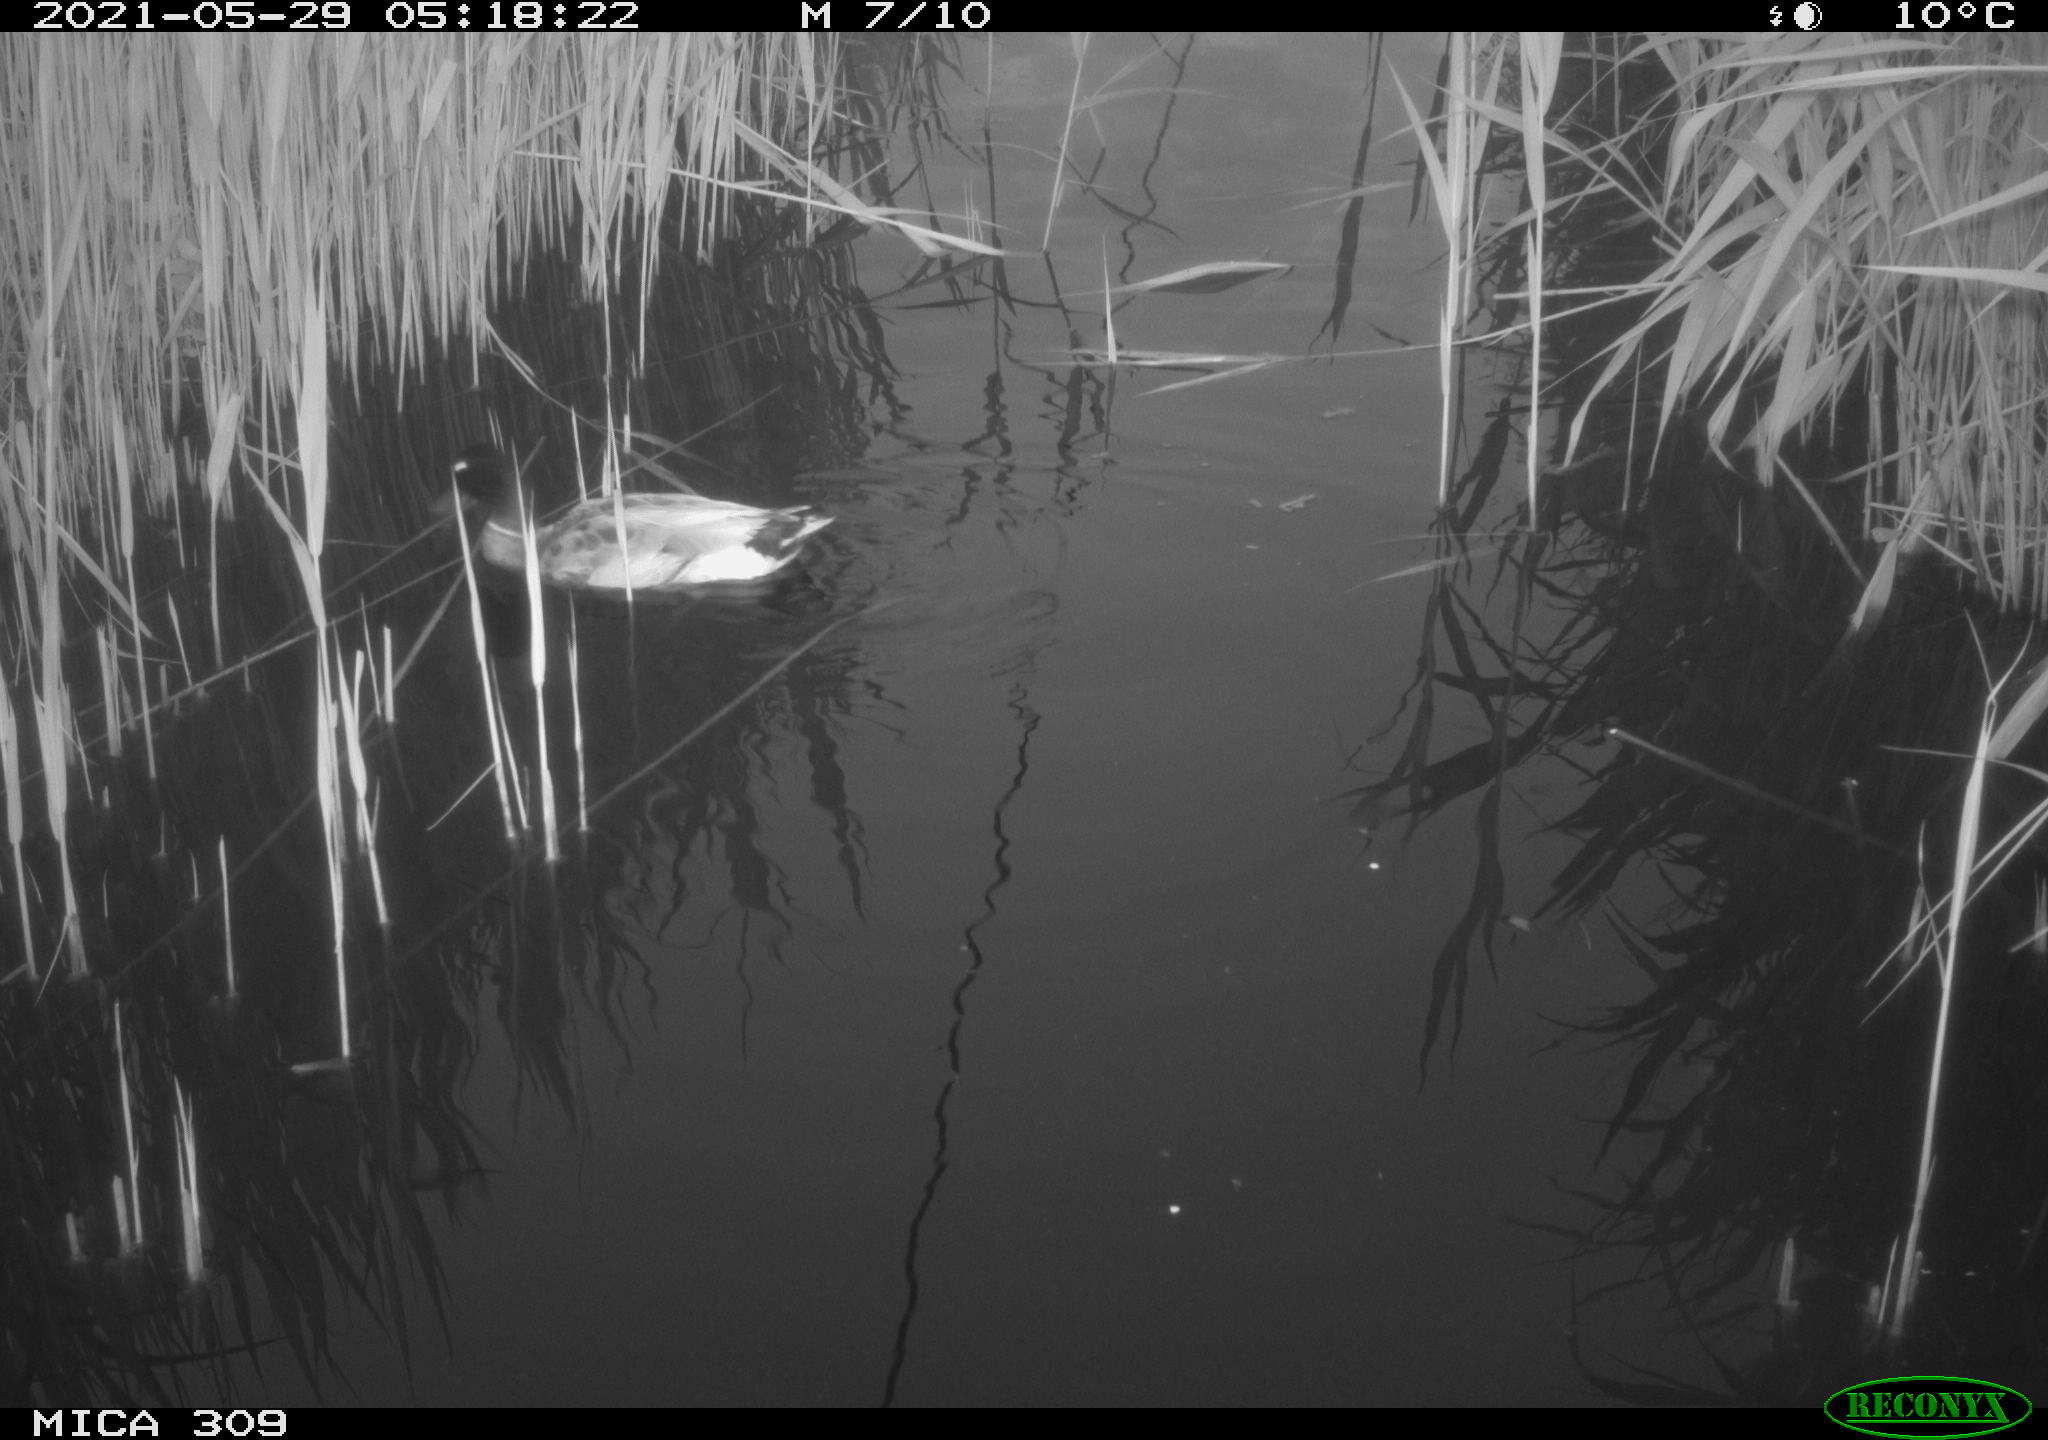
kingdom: Animalia
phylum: Chordata
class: Aves
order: Anseriformes
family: Anatidae
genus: Mareca
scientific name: Mareca strepera
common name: Gadwall
